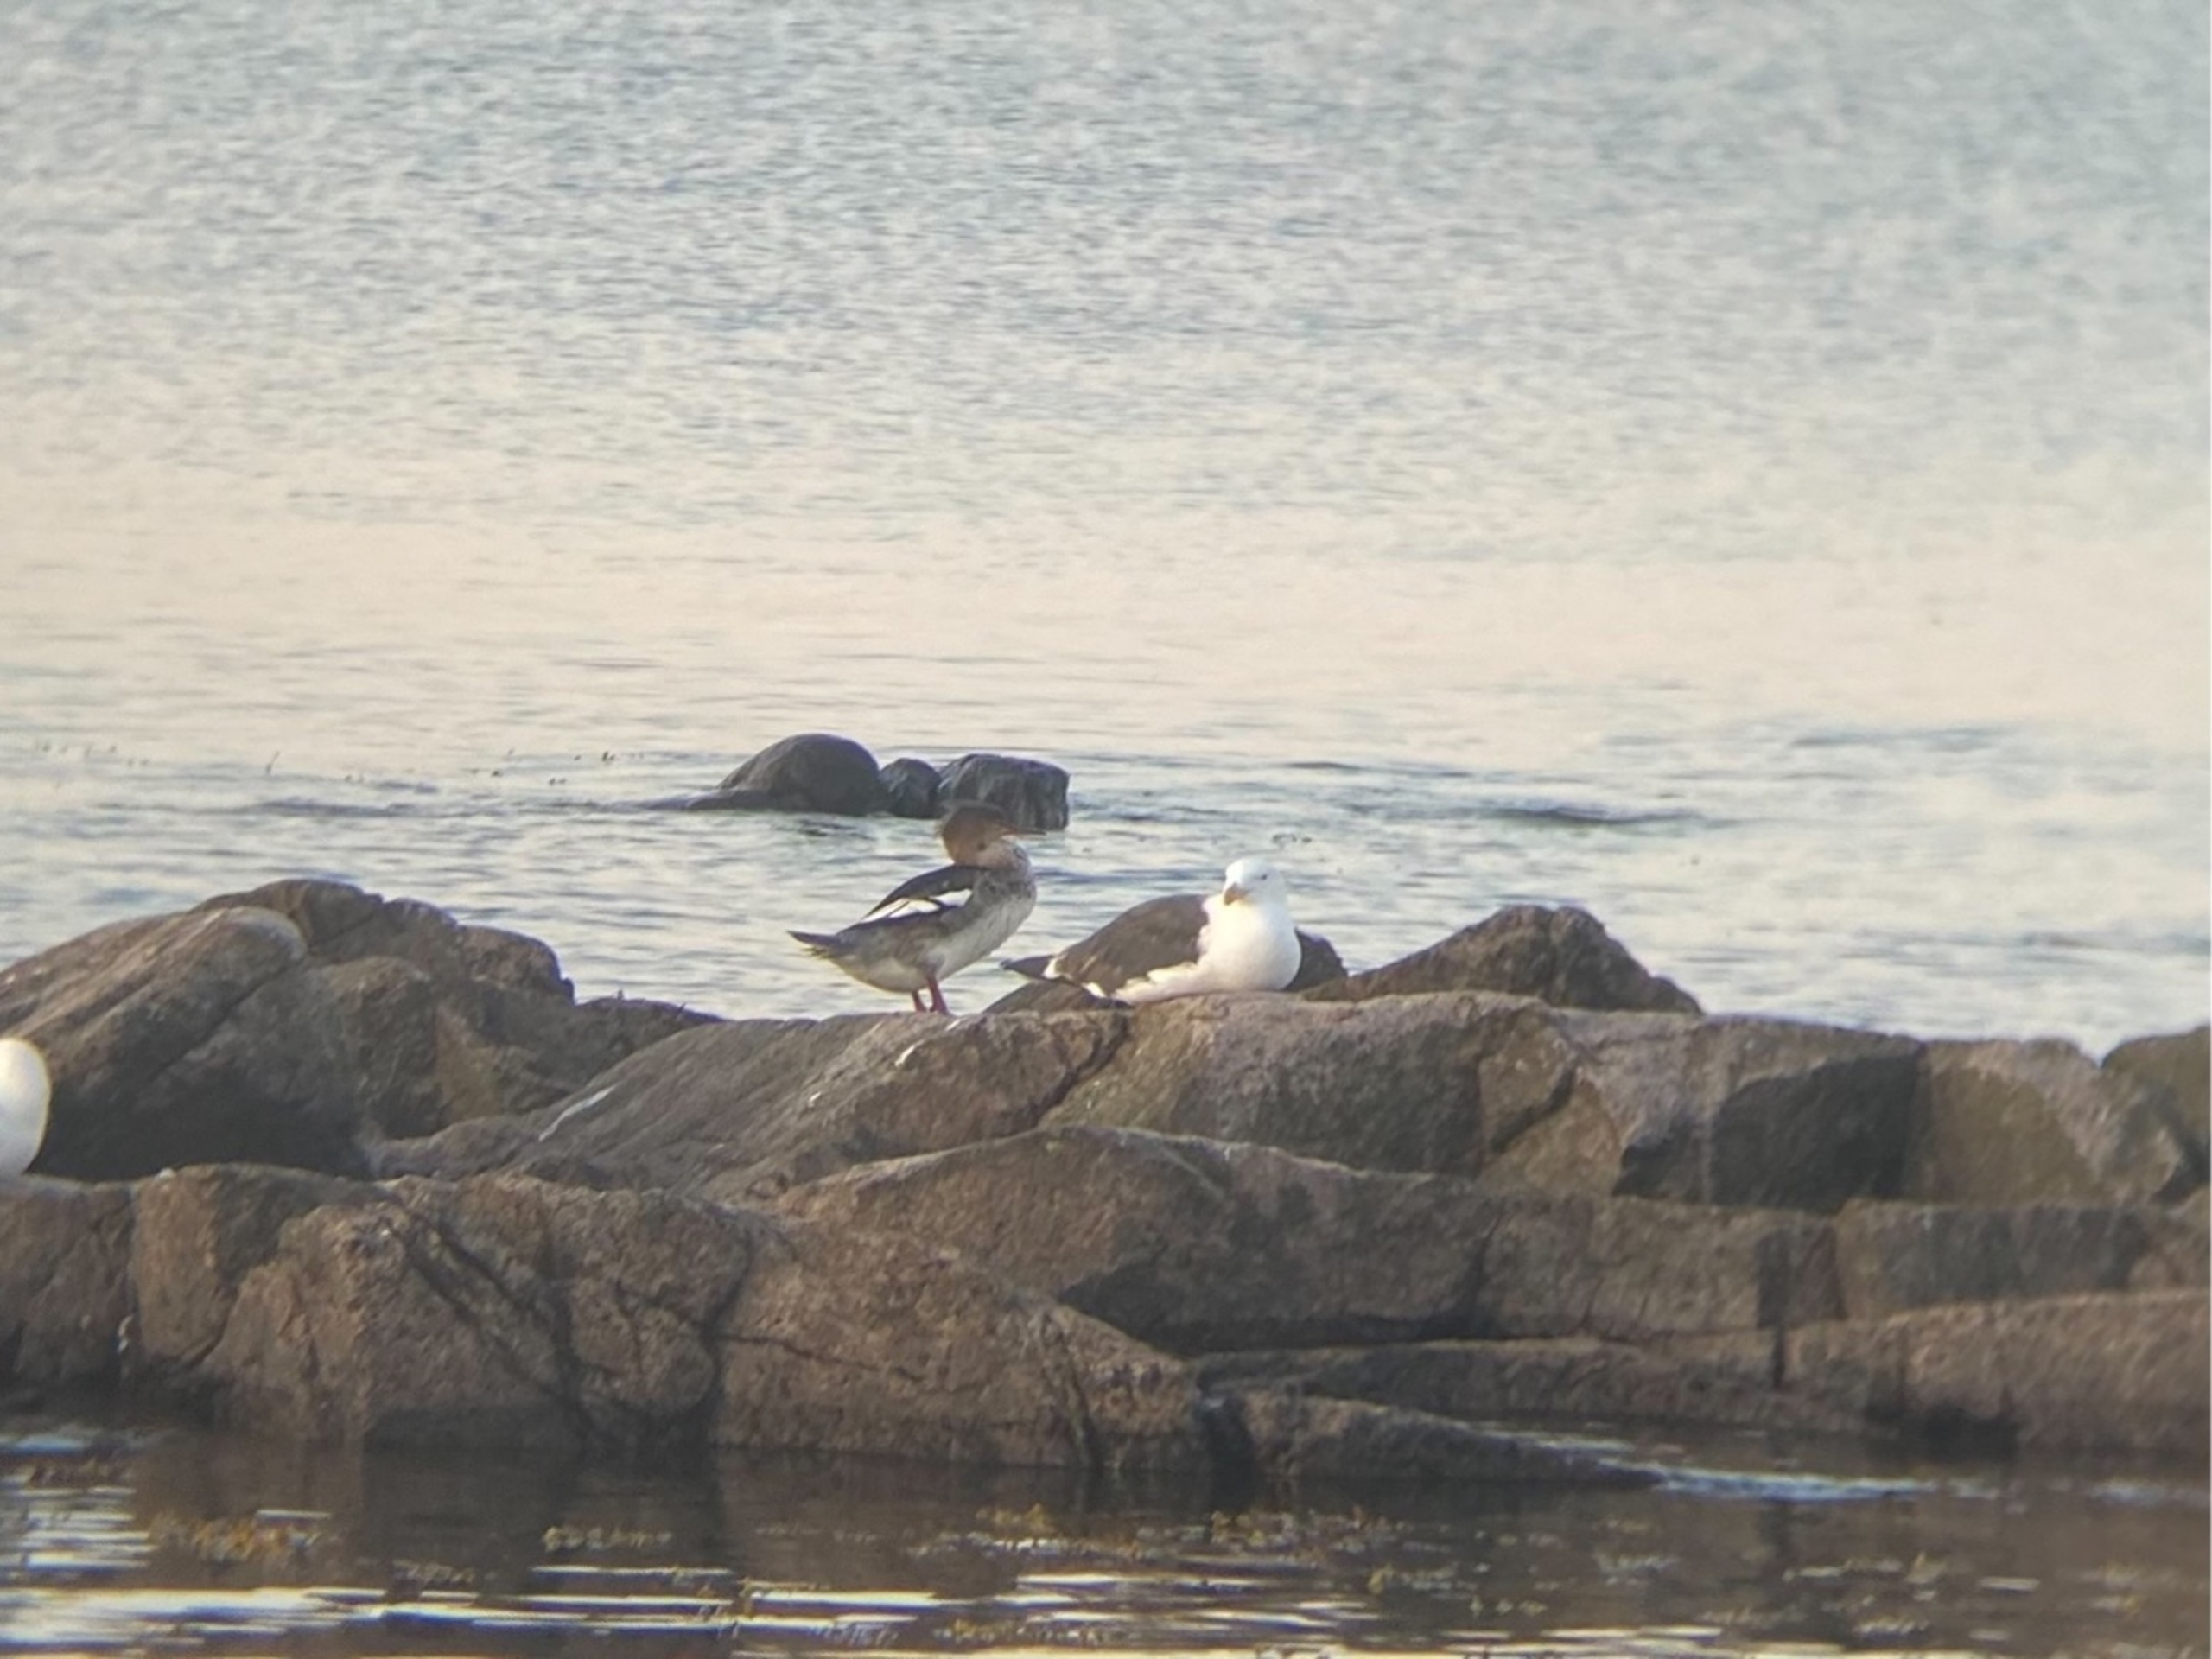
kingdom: Animalia
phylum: Chordata
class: Aves
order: Anseriformes
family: Anatidae
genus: Mergus
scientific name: Mergus serrator
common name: Toppet skallesluger
